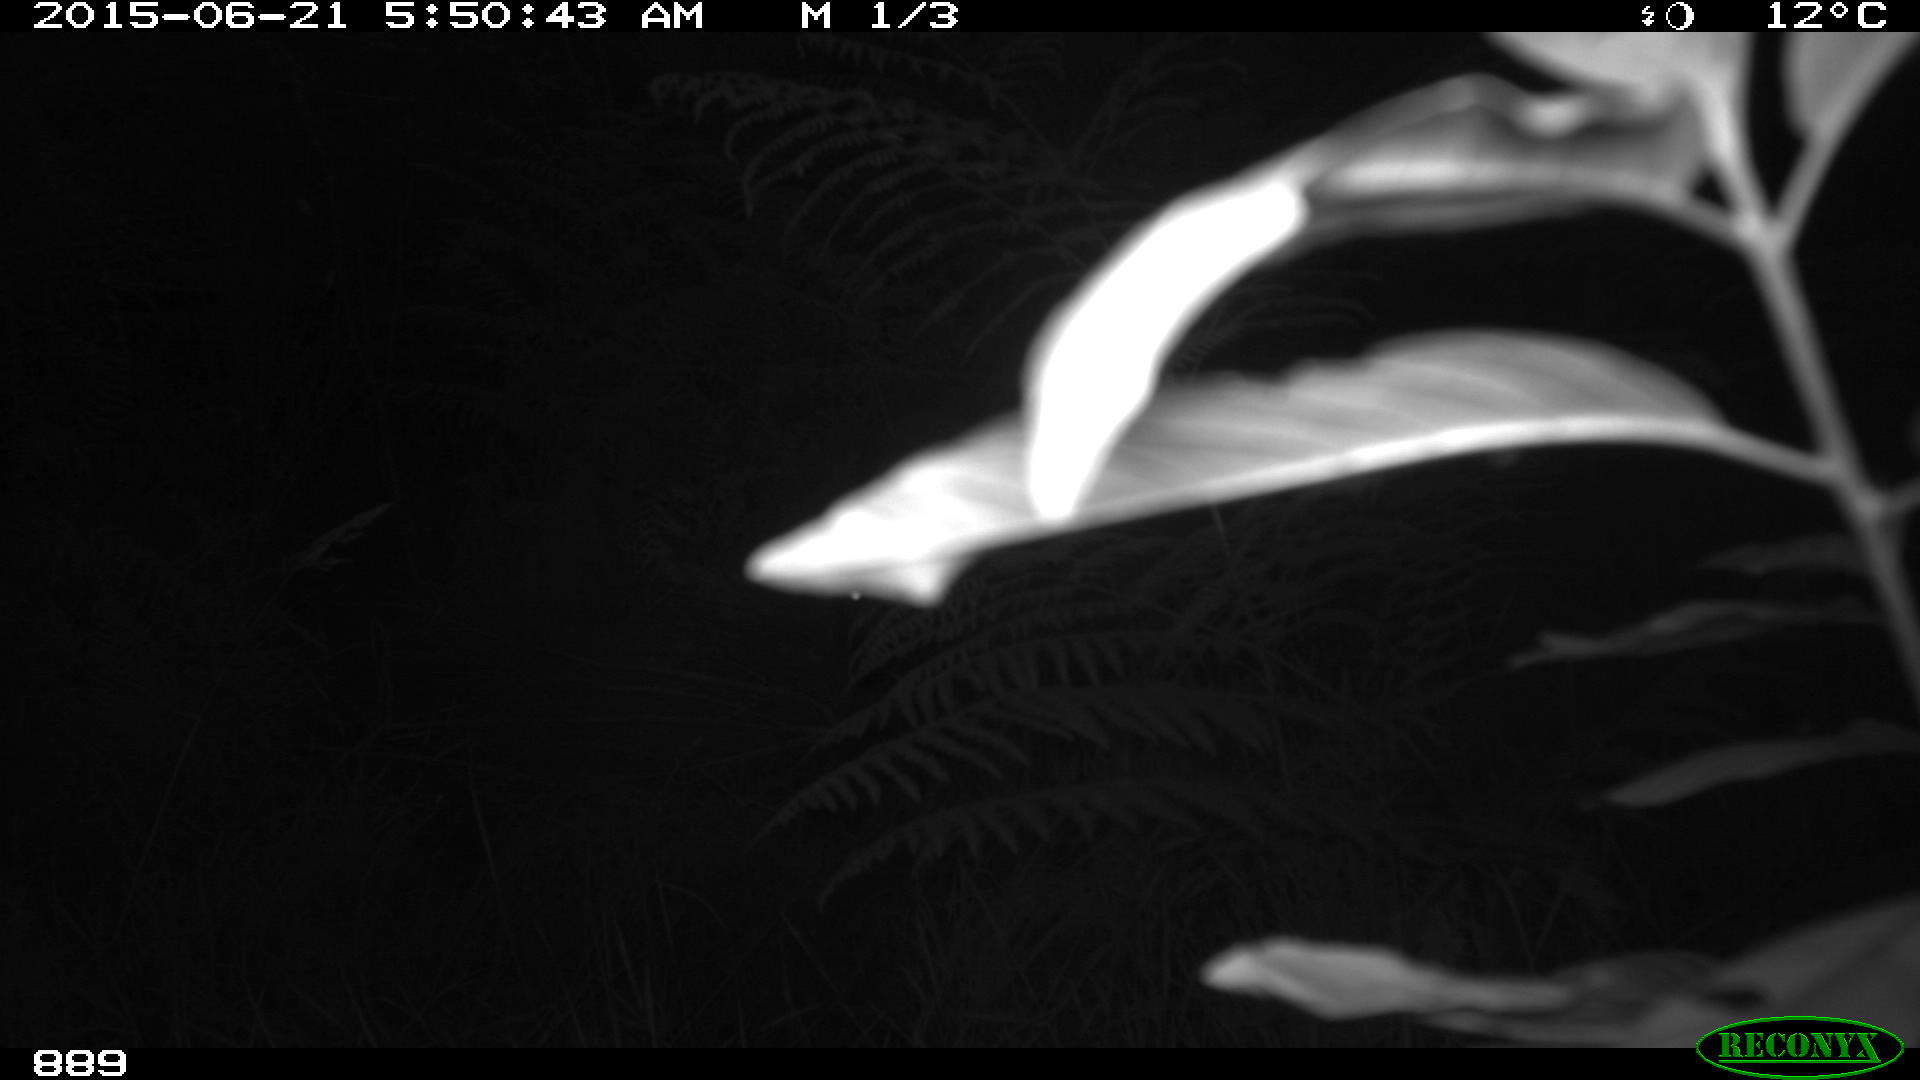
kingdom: Animalia
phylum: Chordata
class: Mammalia
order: Artiodactyla
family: Cervidae
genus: Capreolus
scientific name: Capreolus capreolus
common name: Western roe deer
